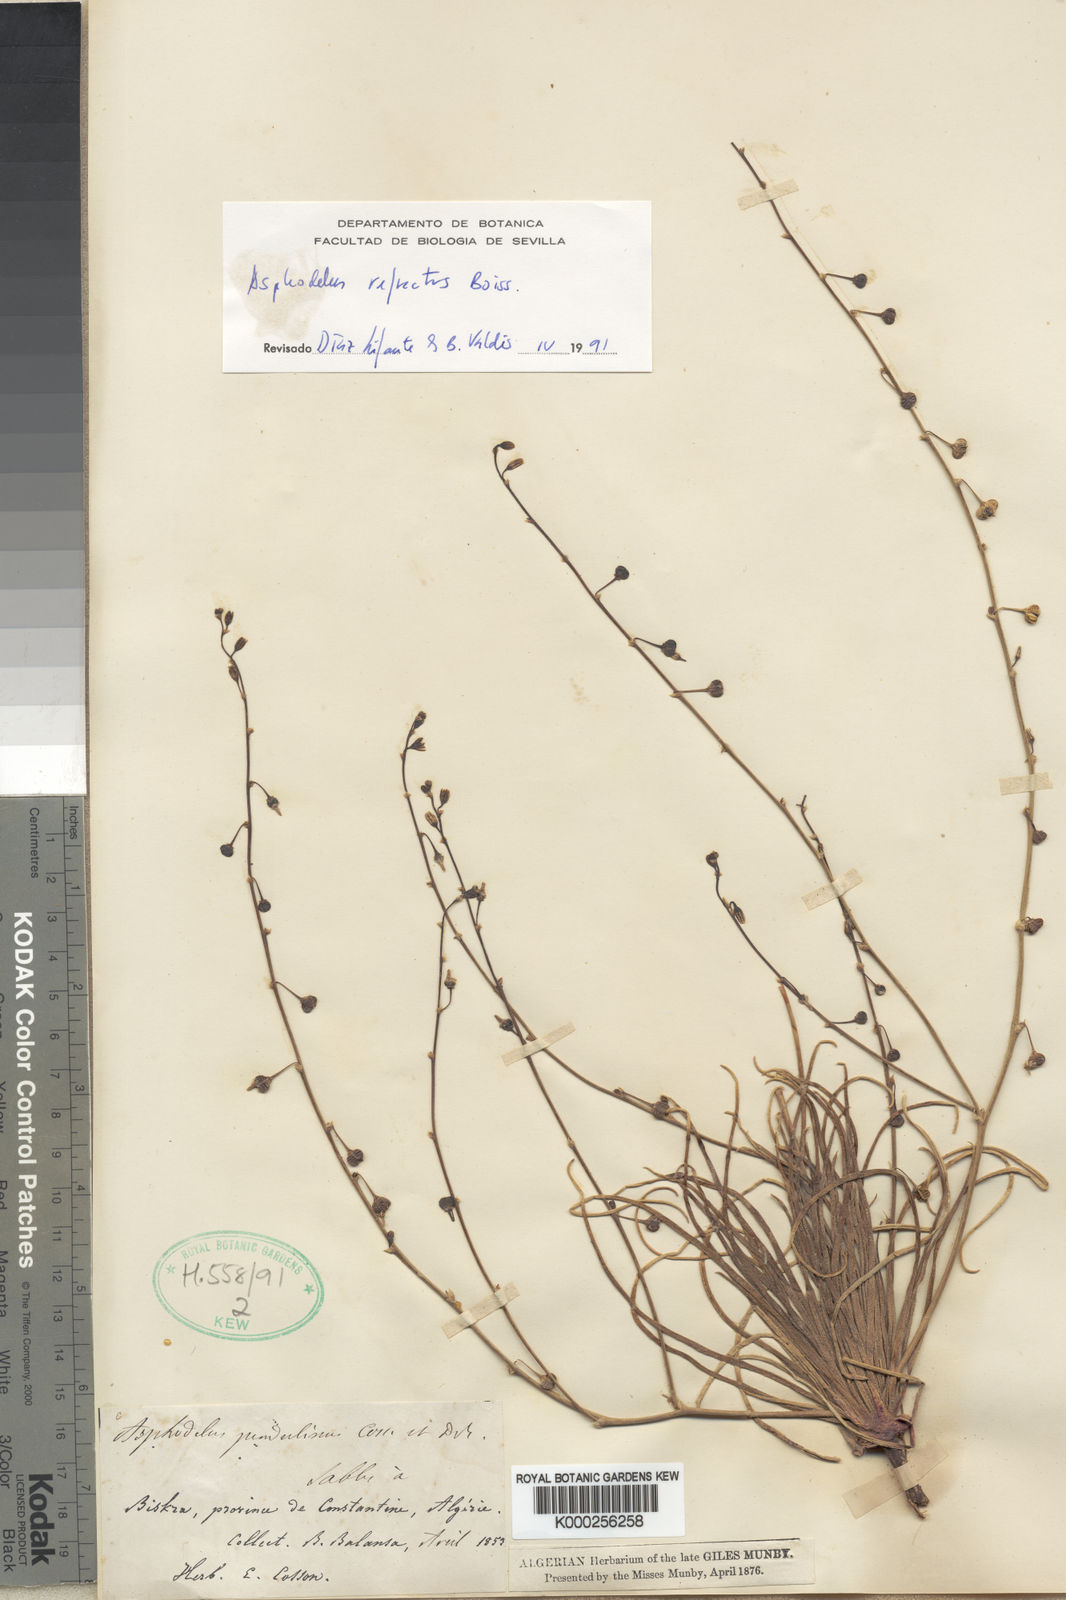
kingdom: Plantae
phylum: Tracheophyta
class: Liliopsida
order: Asparagales
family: Asphodelaceae
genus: Asphodelus
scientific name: Asphodelus refractus
